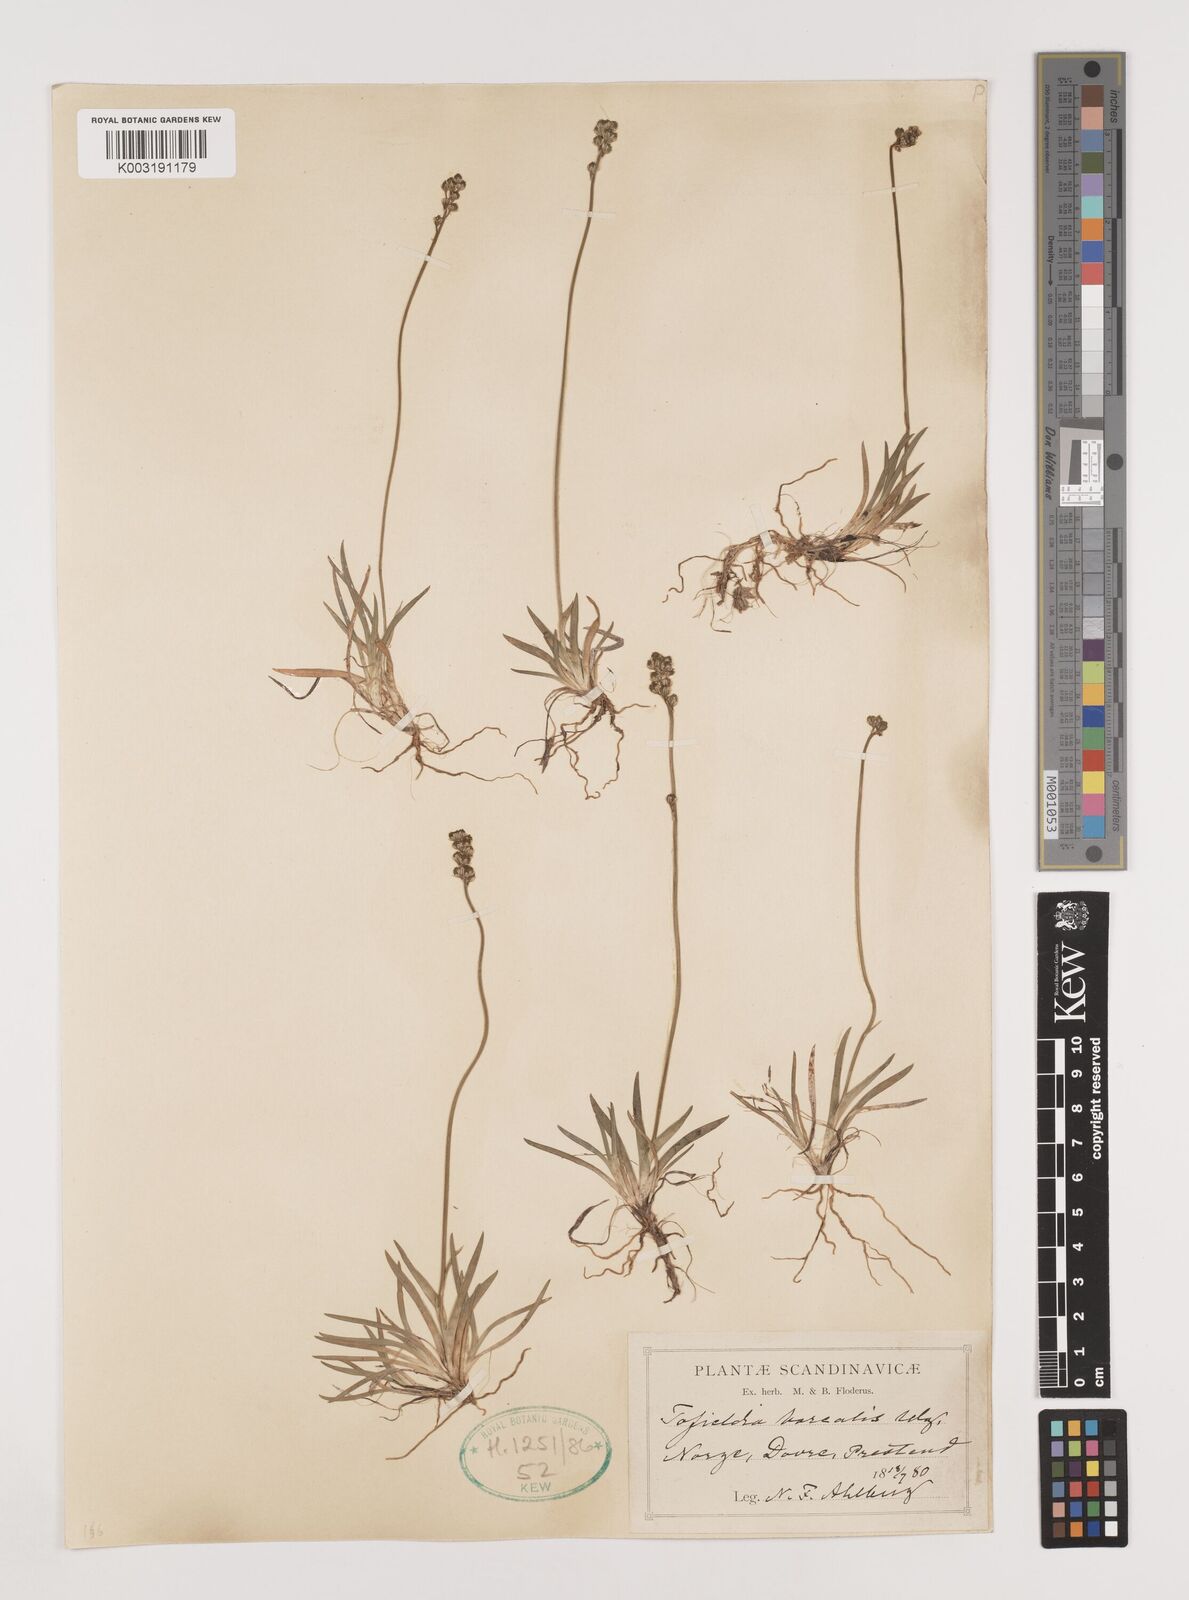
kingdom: Plantae
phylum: Tracheophyta
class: Liliopsida
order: Alismatales
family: Tofieldiaceae
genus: Tofieldia
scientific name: Tofieldia pusilla
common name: Scottish false asphodel
